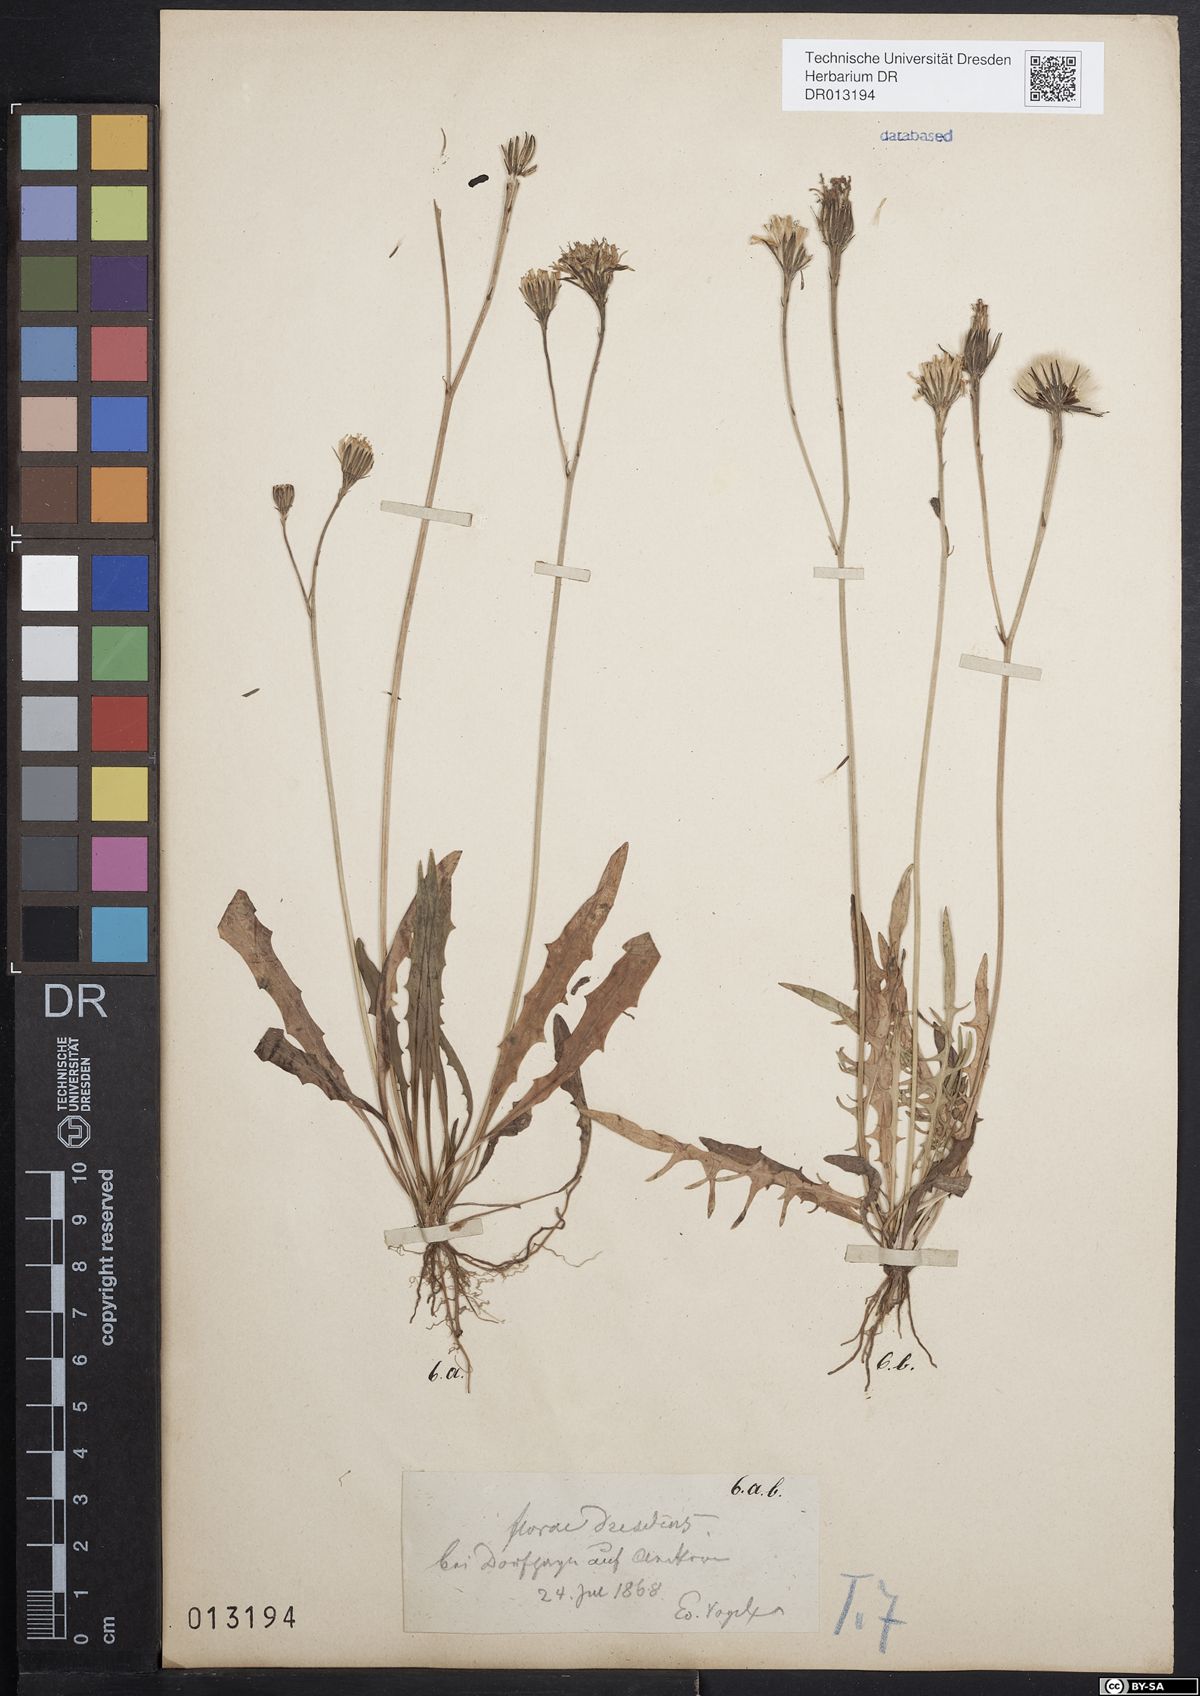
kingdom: Plantae
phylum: Tracheophyta
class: Magnoliopsida
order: Asterales
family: Asteraceae
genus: Scorzoneroides
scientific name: Scorzoneroides autumnalis
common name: Autumn hawkbit
